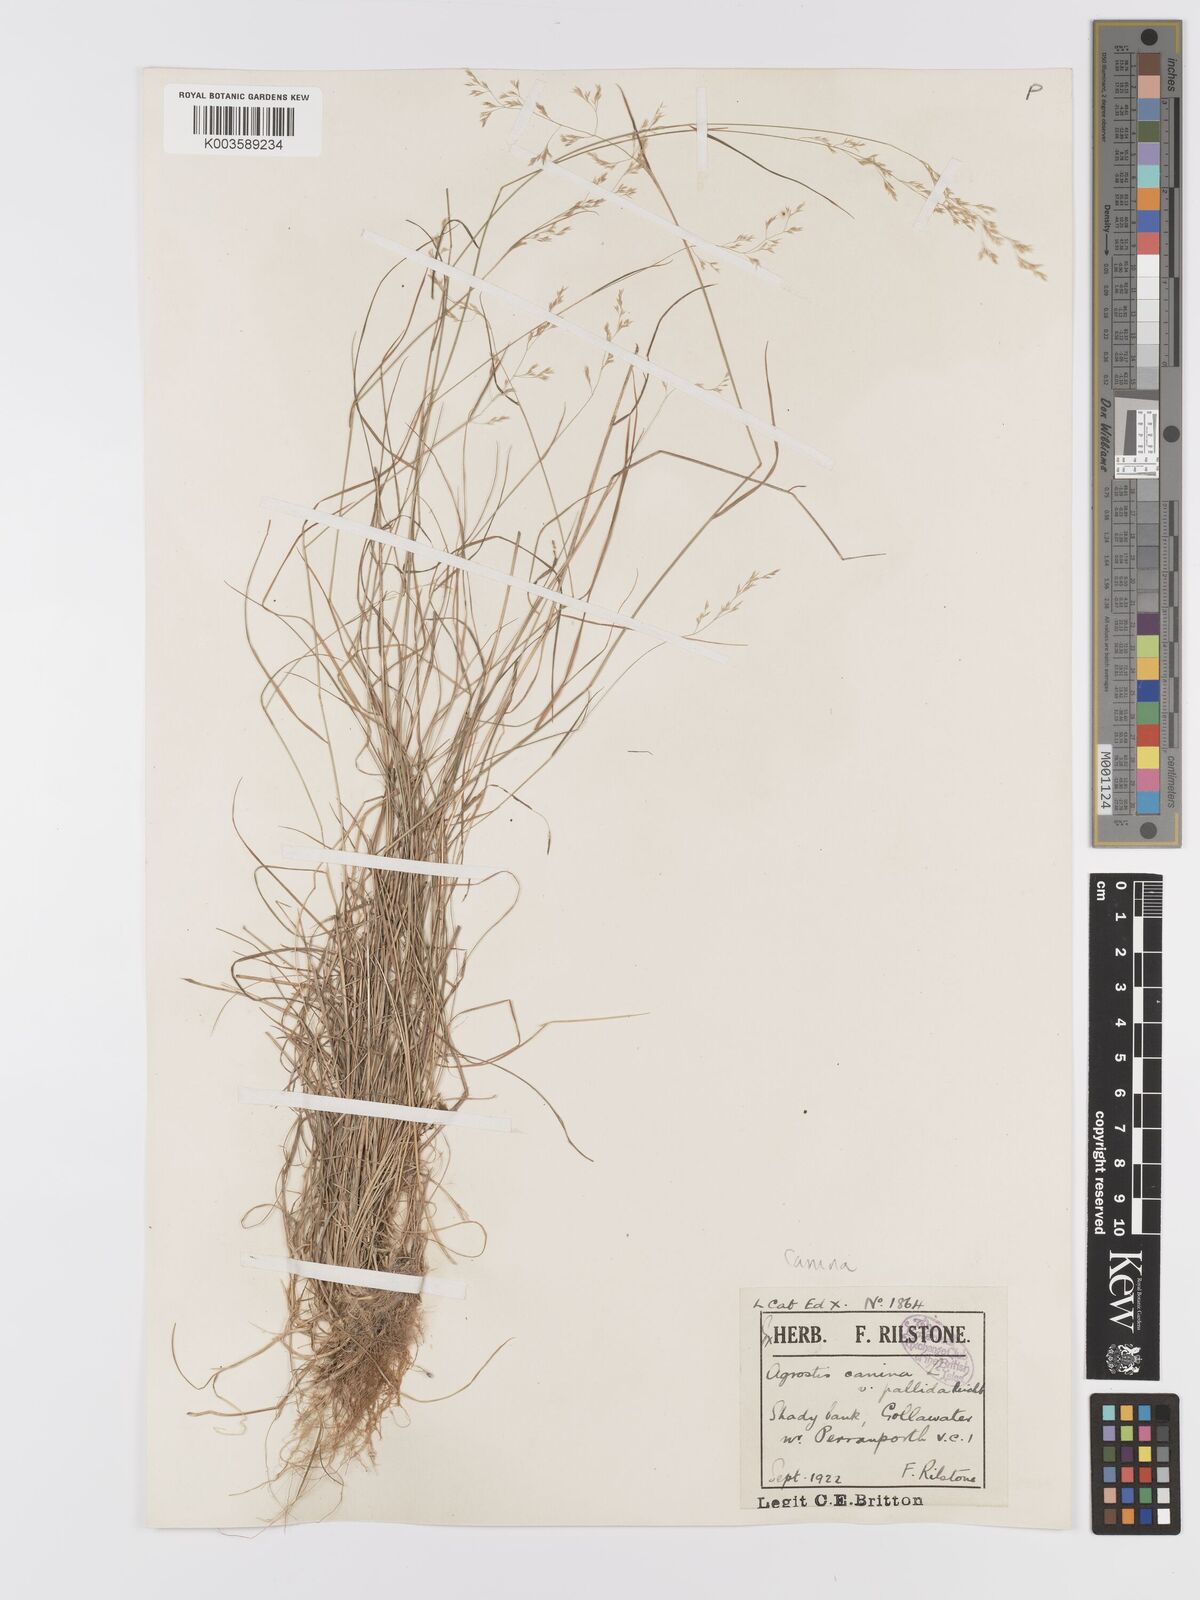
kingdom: Plantae
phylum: Tracheophyta
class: Liliopsida
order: Poales
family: Poaceae
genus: Agrostis
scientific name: Agrostis canina
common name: Velvet bent
